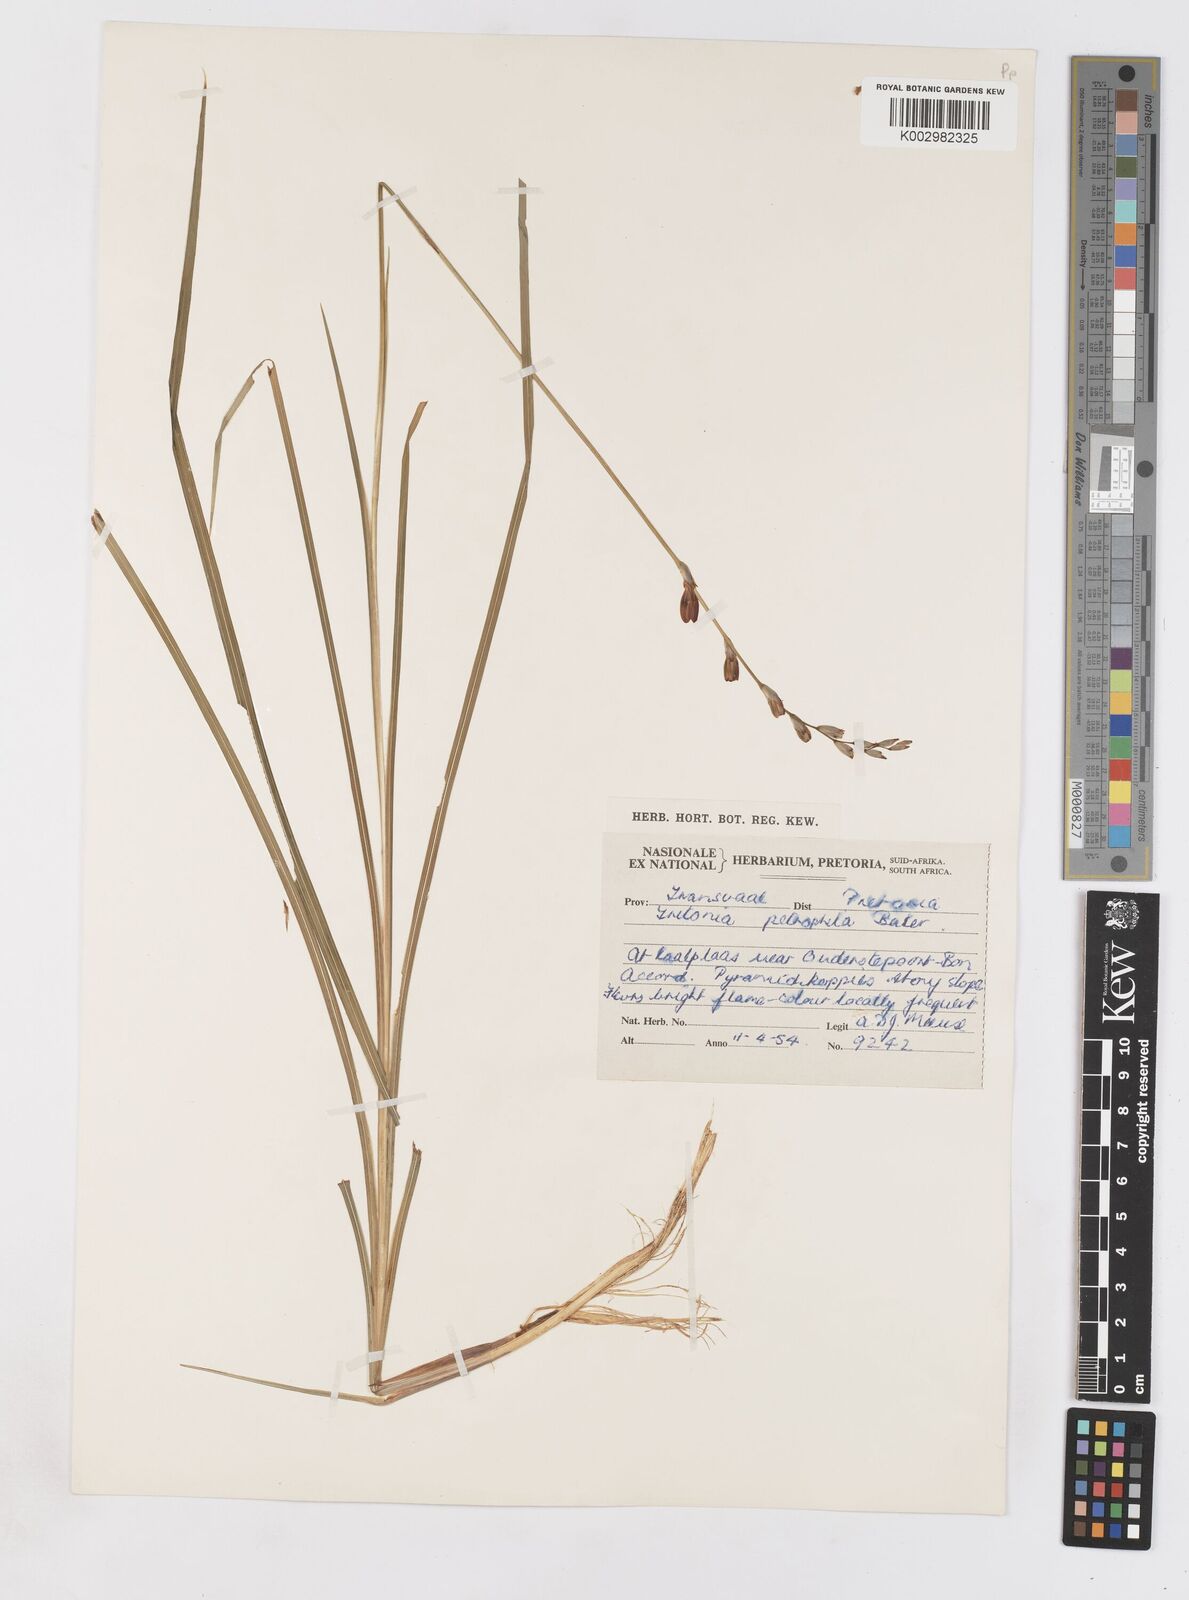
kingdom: Plantae
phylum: Tracheophyta
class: Liliopsida
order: Asparagales
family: Iridaceae
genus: Tritonia
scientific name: Tritonia nelsonii
